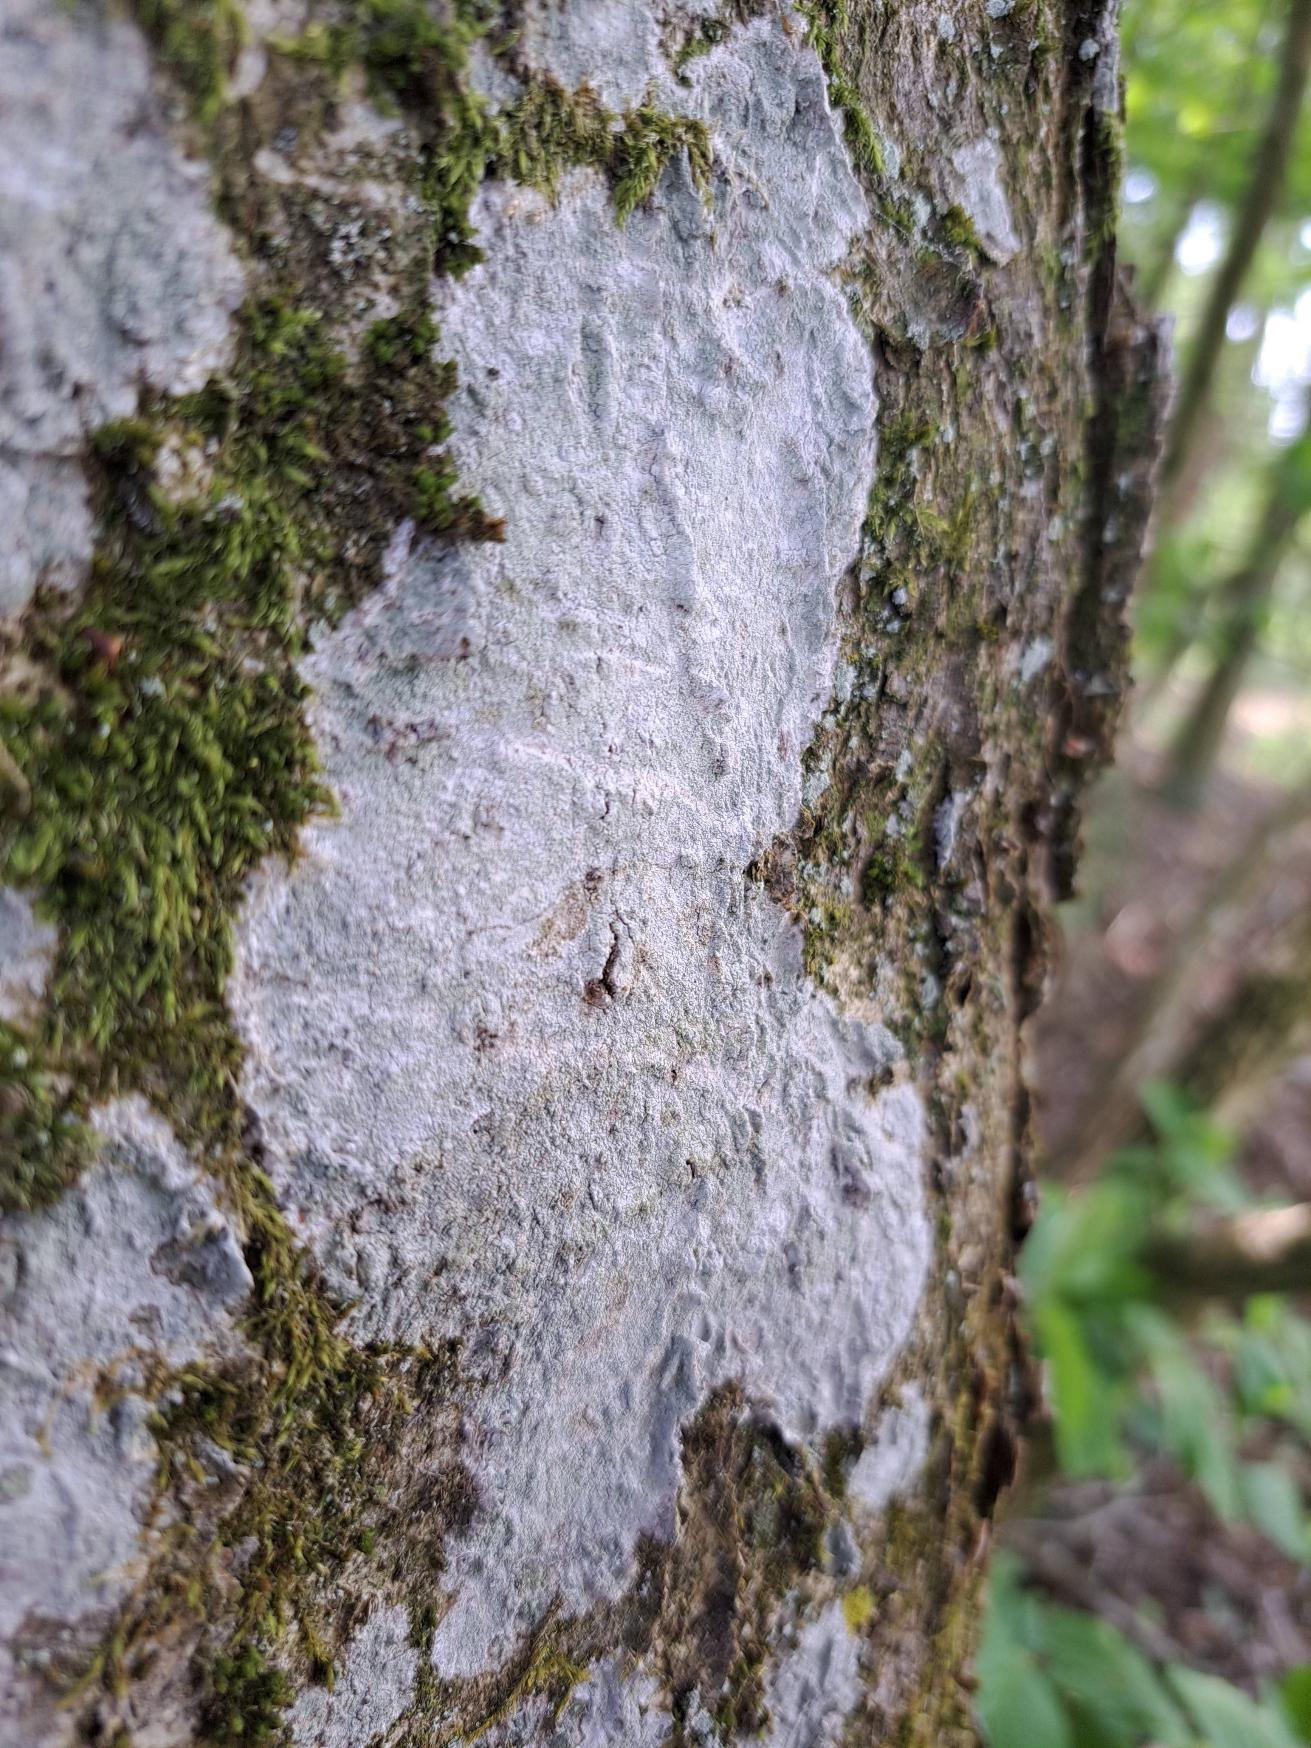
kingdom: Fungi
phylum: Ascomycota
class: Lecanoromycetes
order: Ostropales
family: Phlyctidaceae
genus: Phlyctis
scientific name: Phlyctis argena
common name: Almindelig sølvlav
